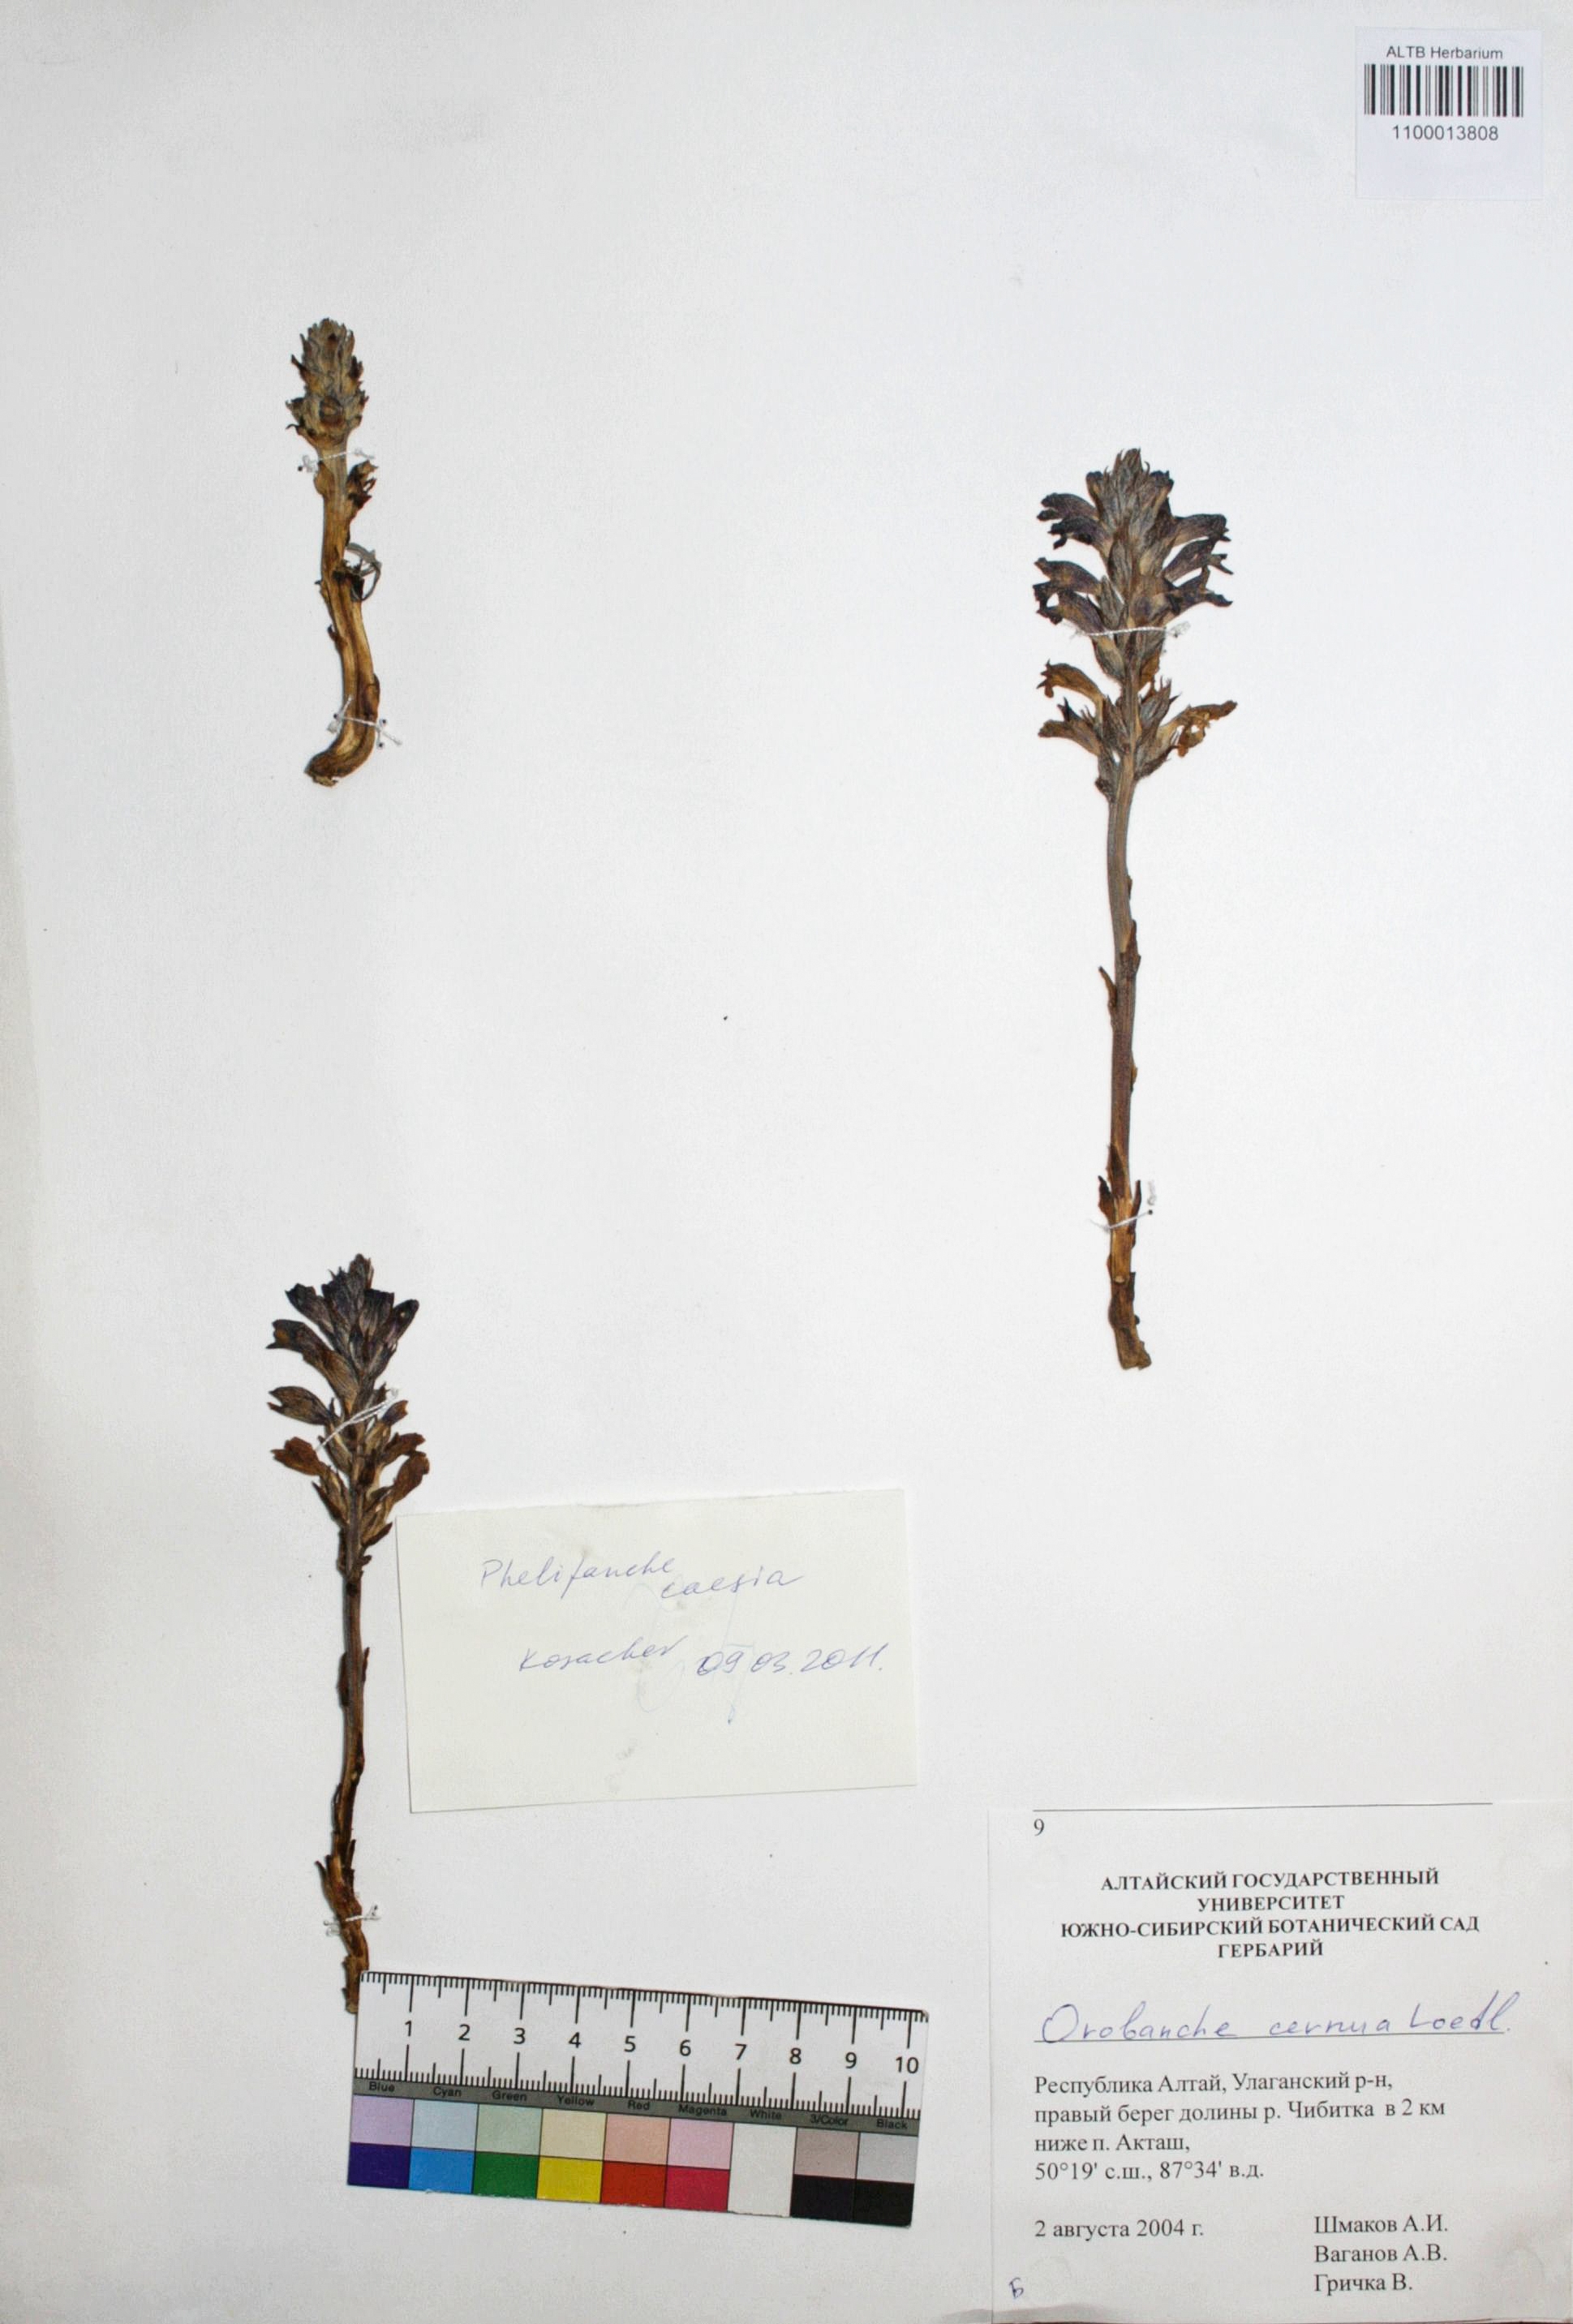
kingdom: Plantae
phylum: Tracheophyta
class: Magnoliopsida
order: Lamiales
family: Orobanchaceae
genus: Phelipanche
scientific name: Phelipanche caesia
